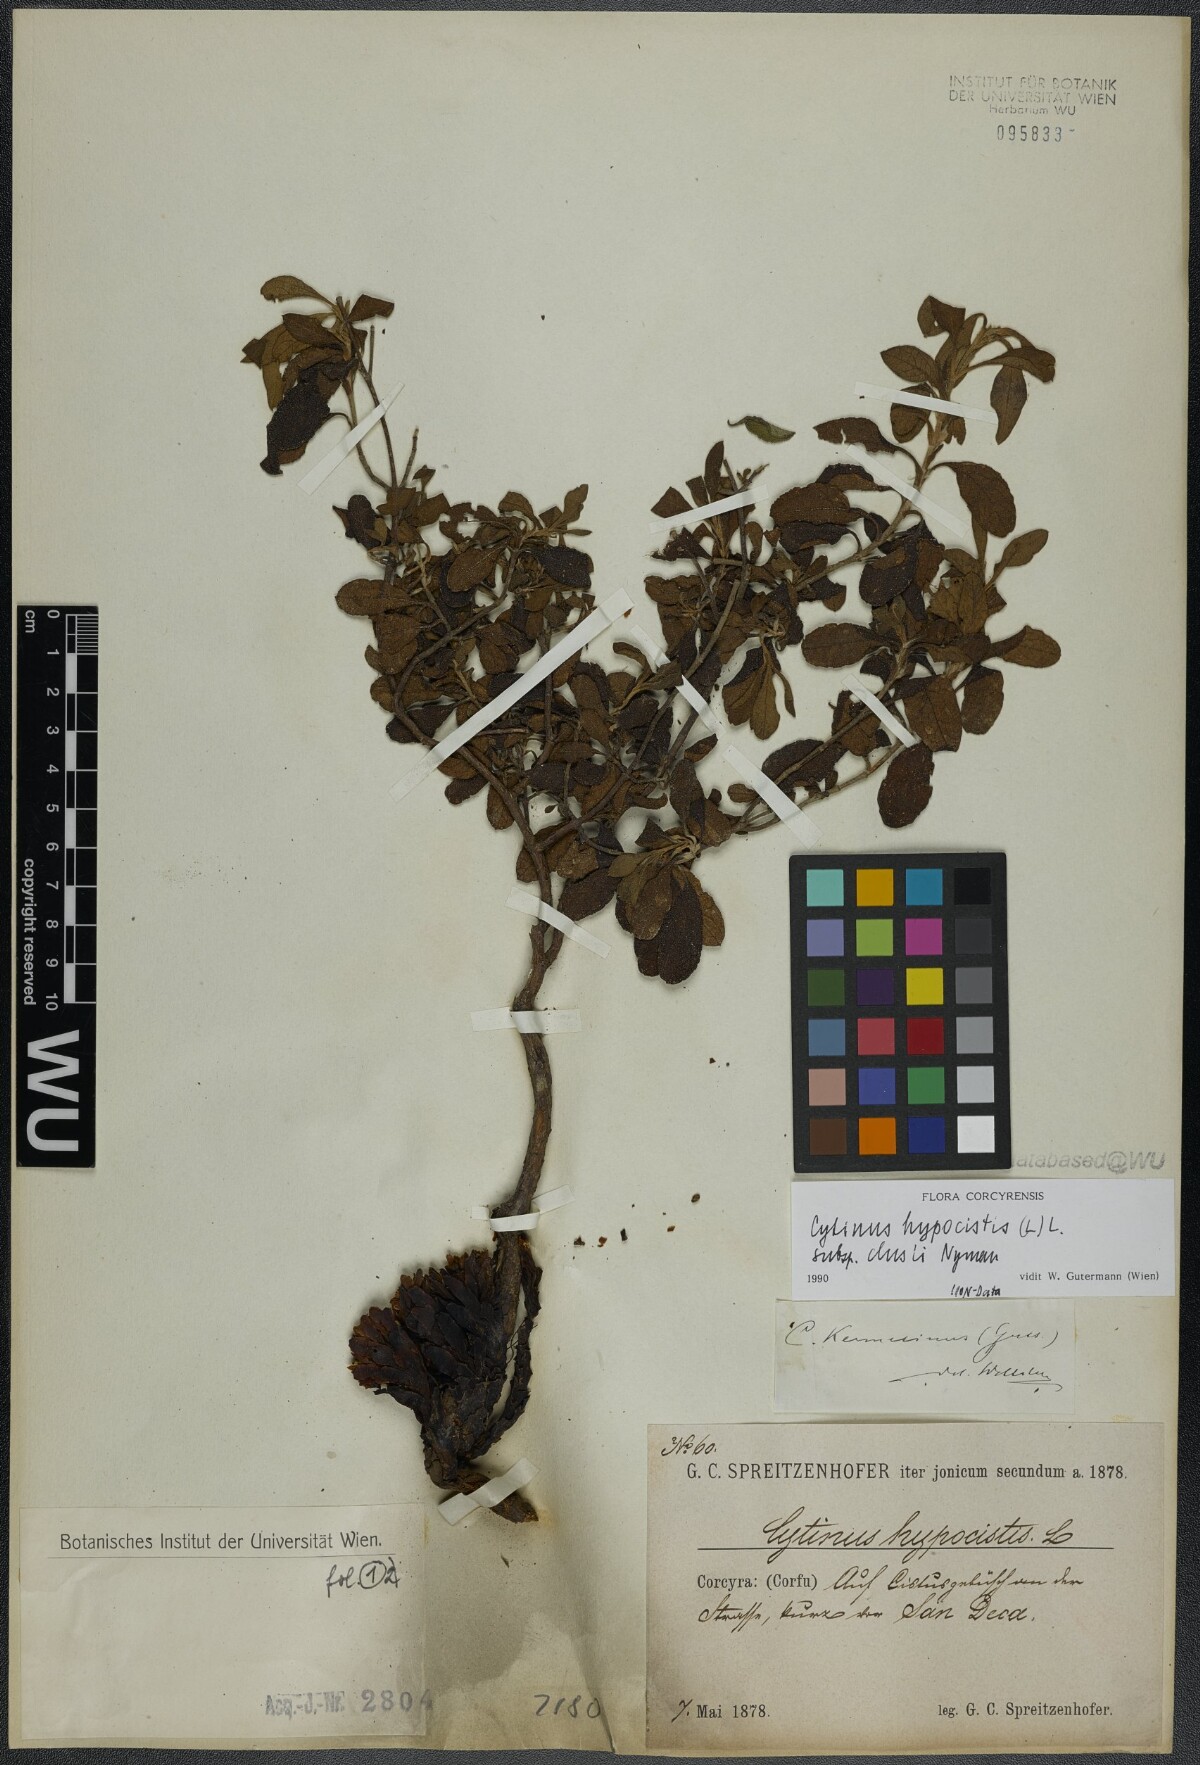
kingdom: Plantae
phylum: Tracheophyta
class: Magnoliopsida
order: Malvales
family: Cytinaceae
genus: Cytinus
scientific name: Cytinus ruber
